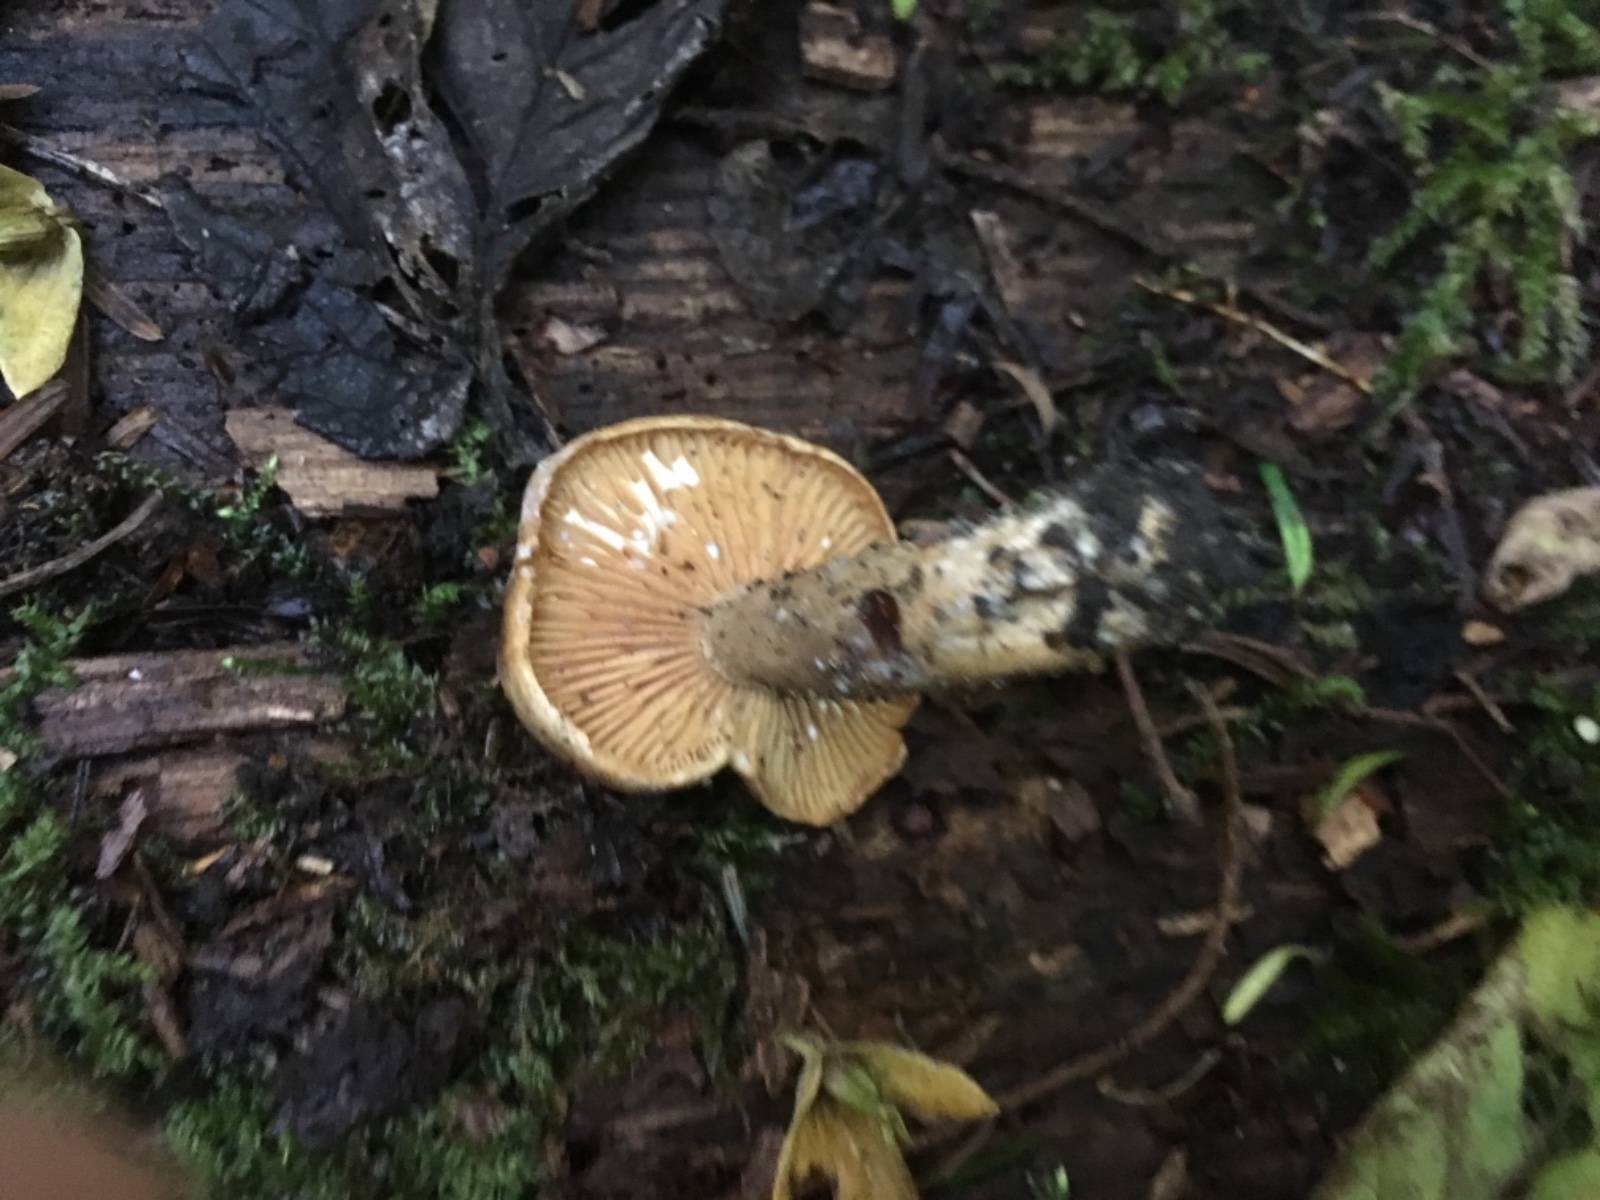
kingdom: Fungi
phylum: Basidiomycota
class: Agaricomycetes
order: Russulales
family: Russulaceae
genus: Lactarius
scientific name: Lactarius circellatus
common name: avnbøg-mælkehat
